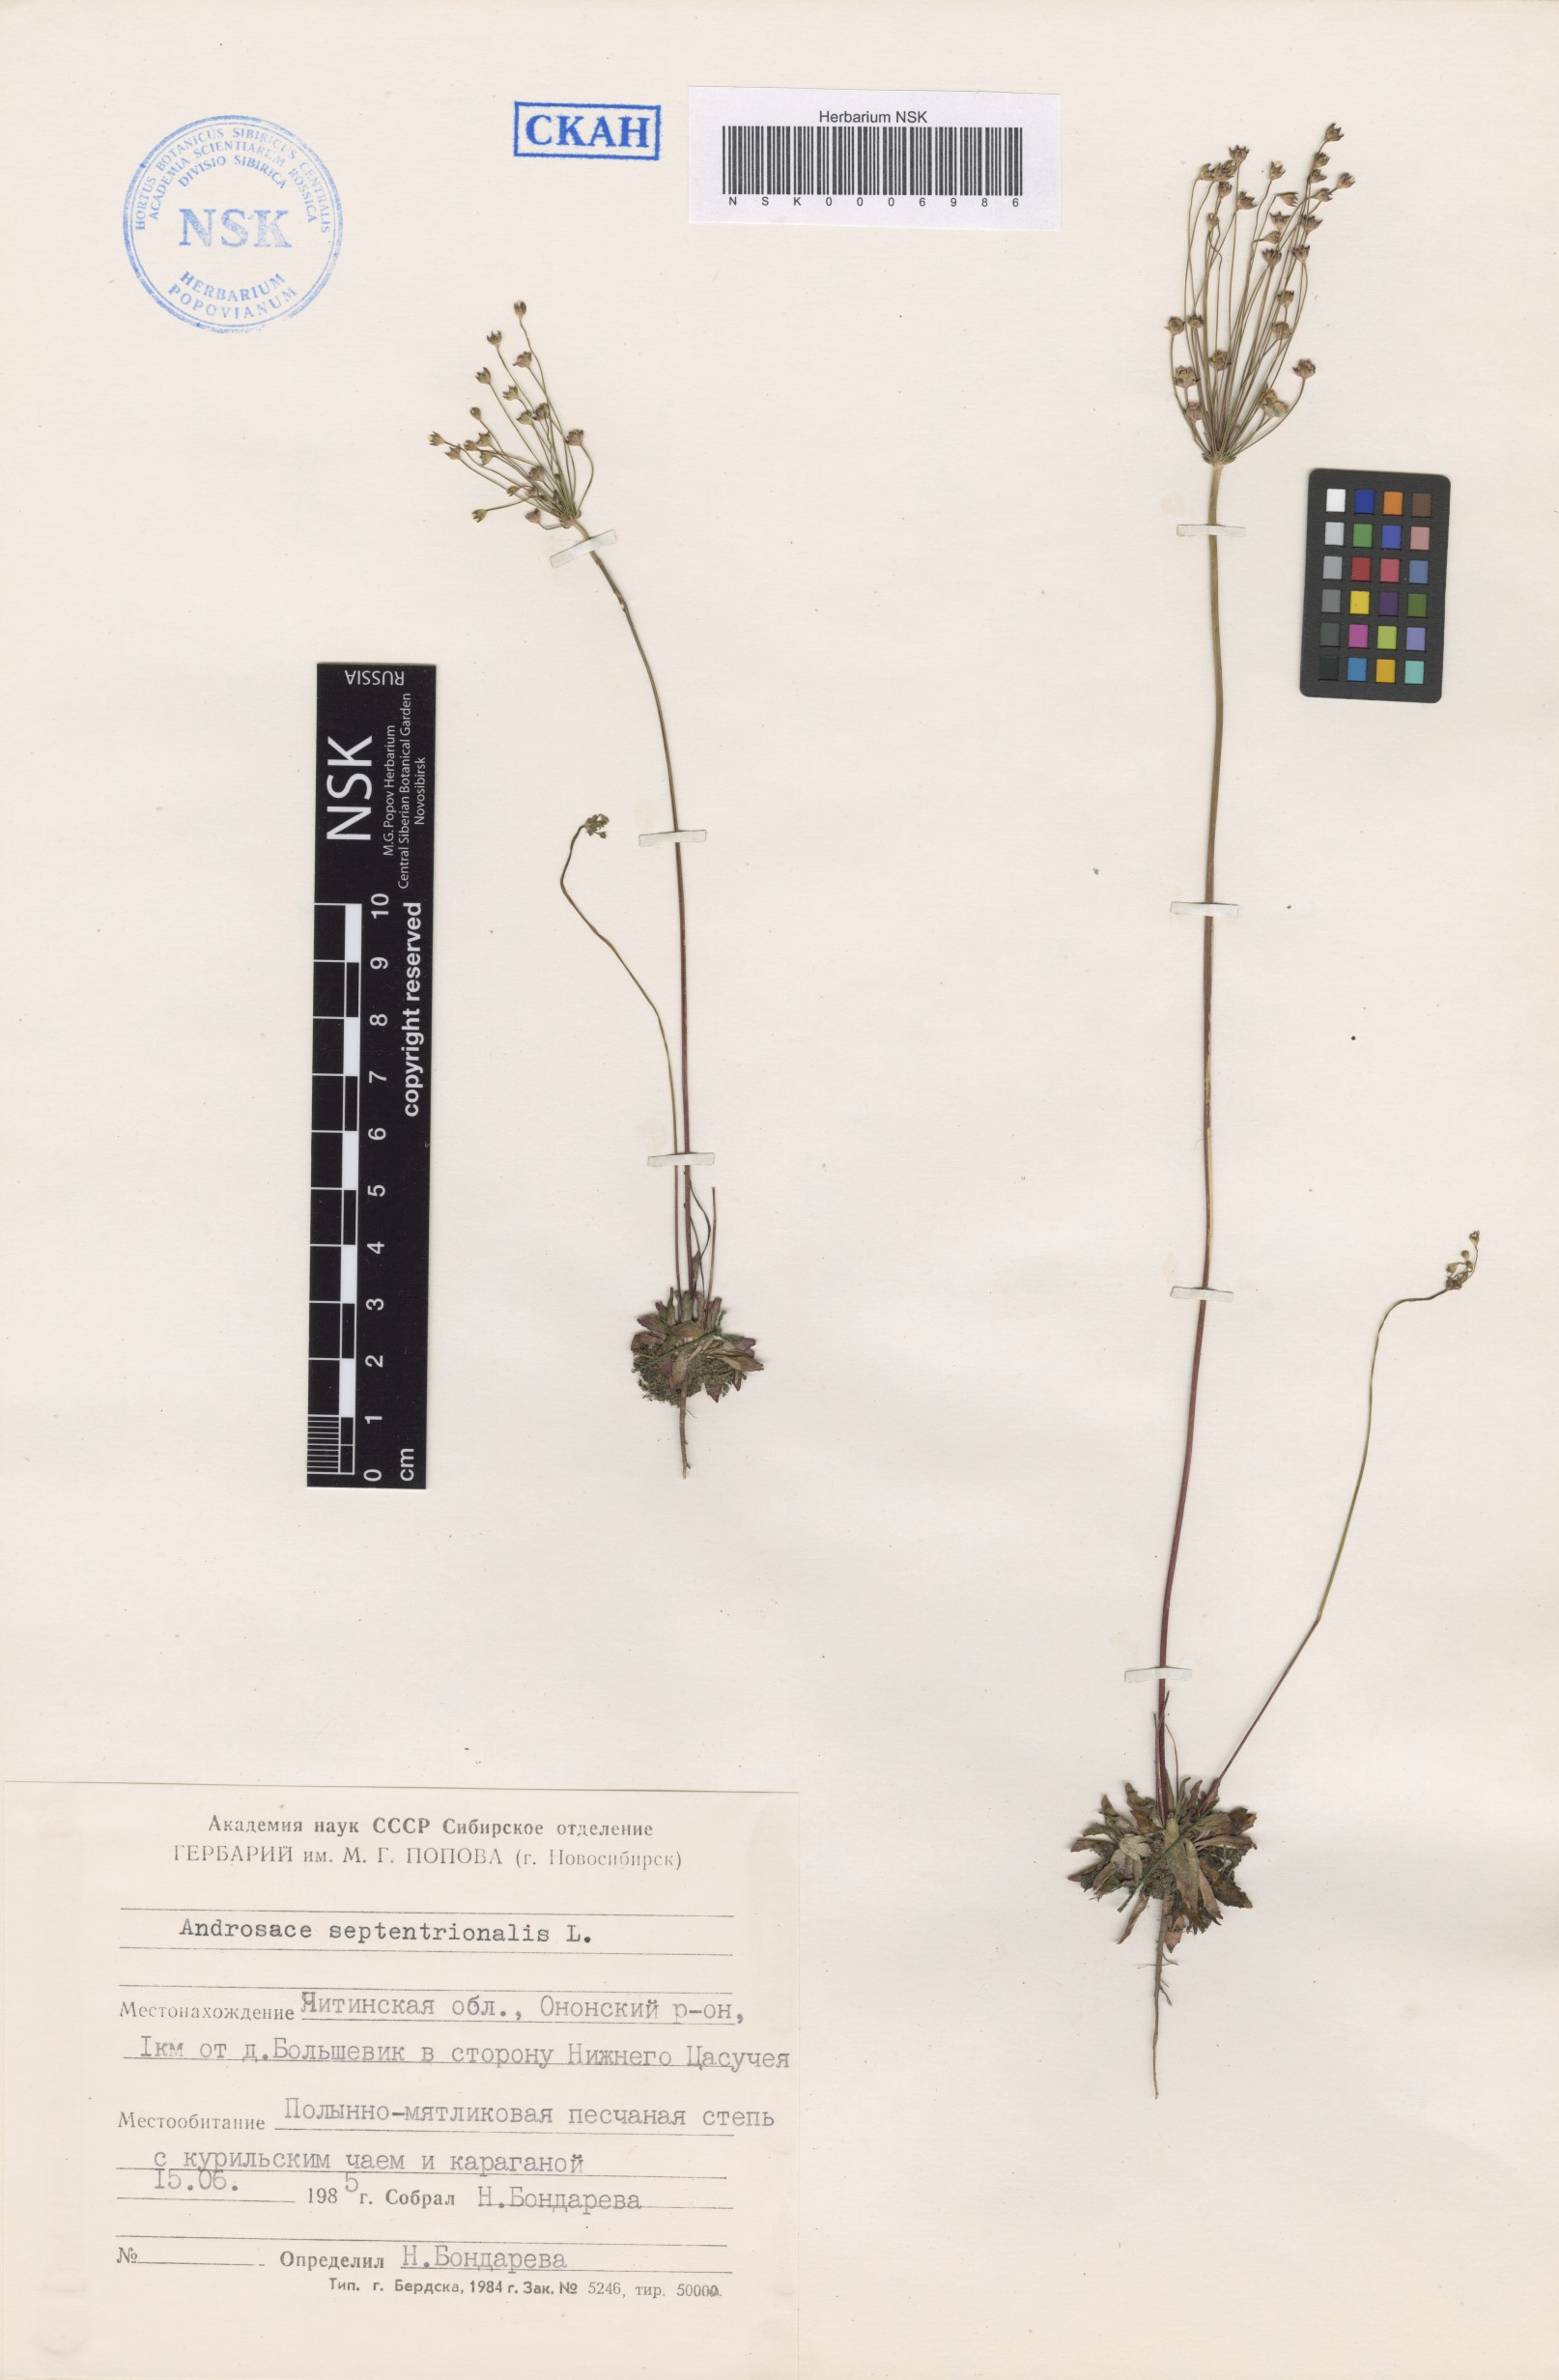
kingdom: Plantae
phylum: Tracheophyta
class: Magnoliopsida
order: Ericales
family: Primulaceae
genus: Androsace
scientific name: Androsace septentrionalis
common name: Hairy northern fairy-candelabra
